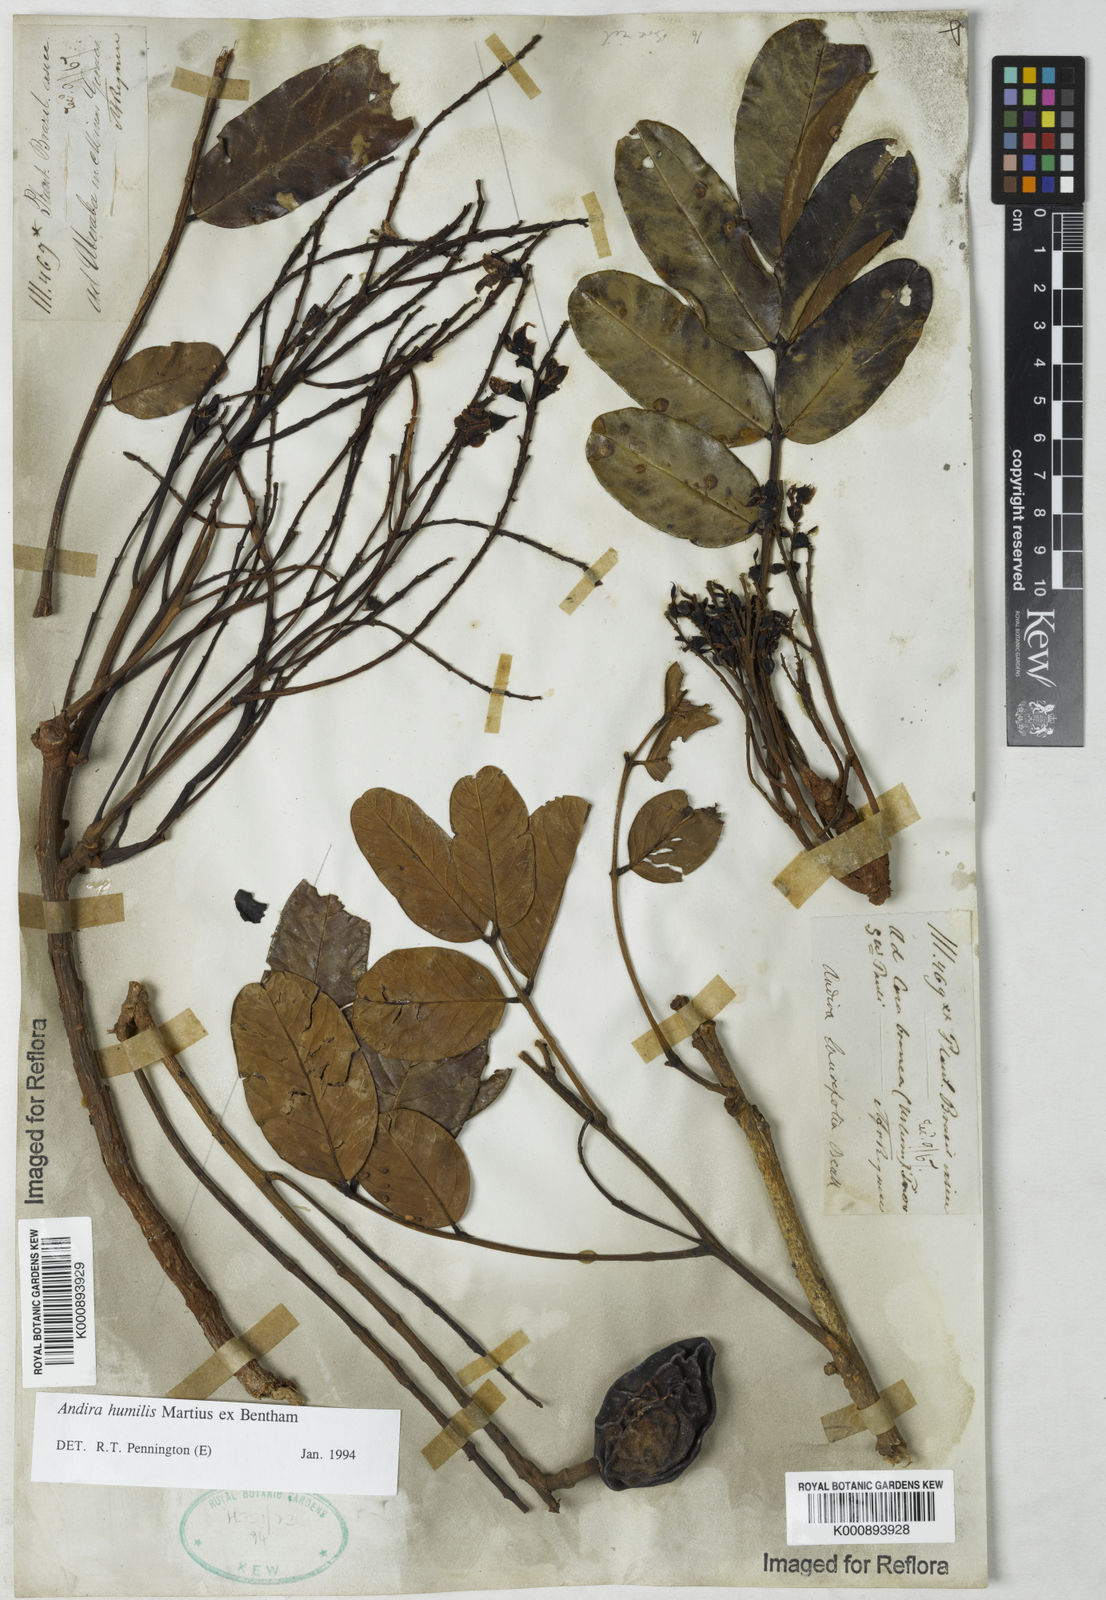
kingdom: Plantae
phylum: Tracheophyta
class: Magnoliopsida
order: Fabales
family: Fabaceae
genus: Andira
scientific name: Andira humilis
